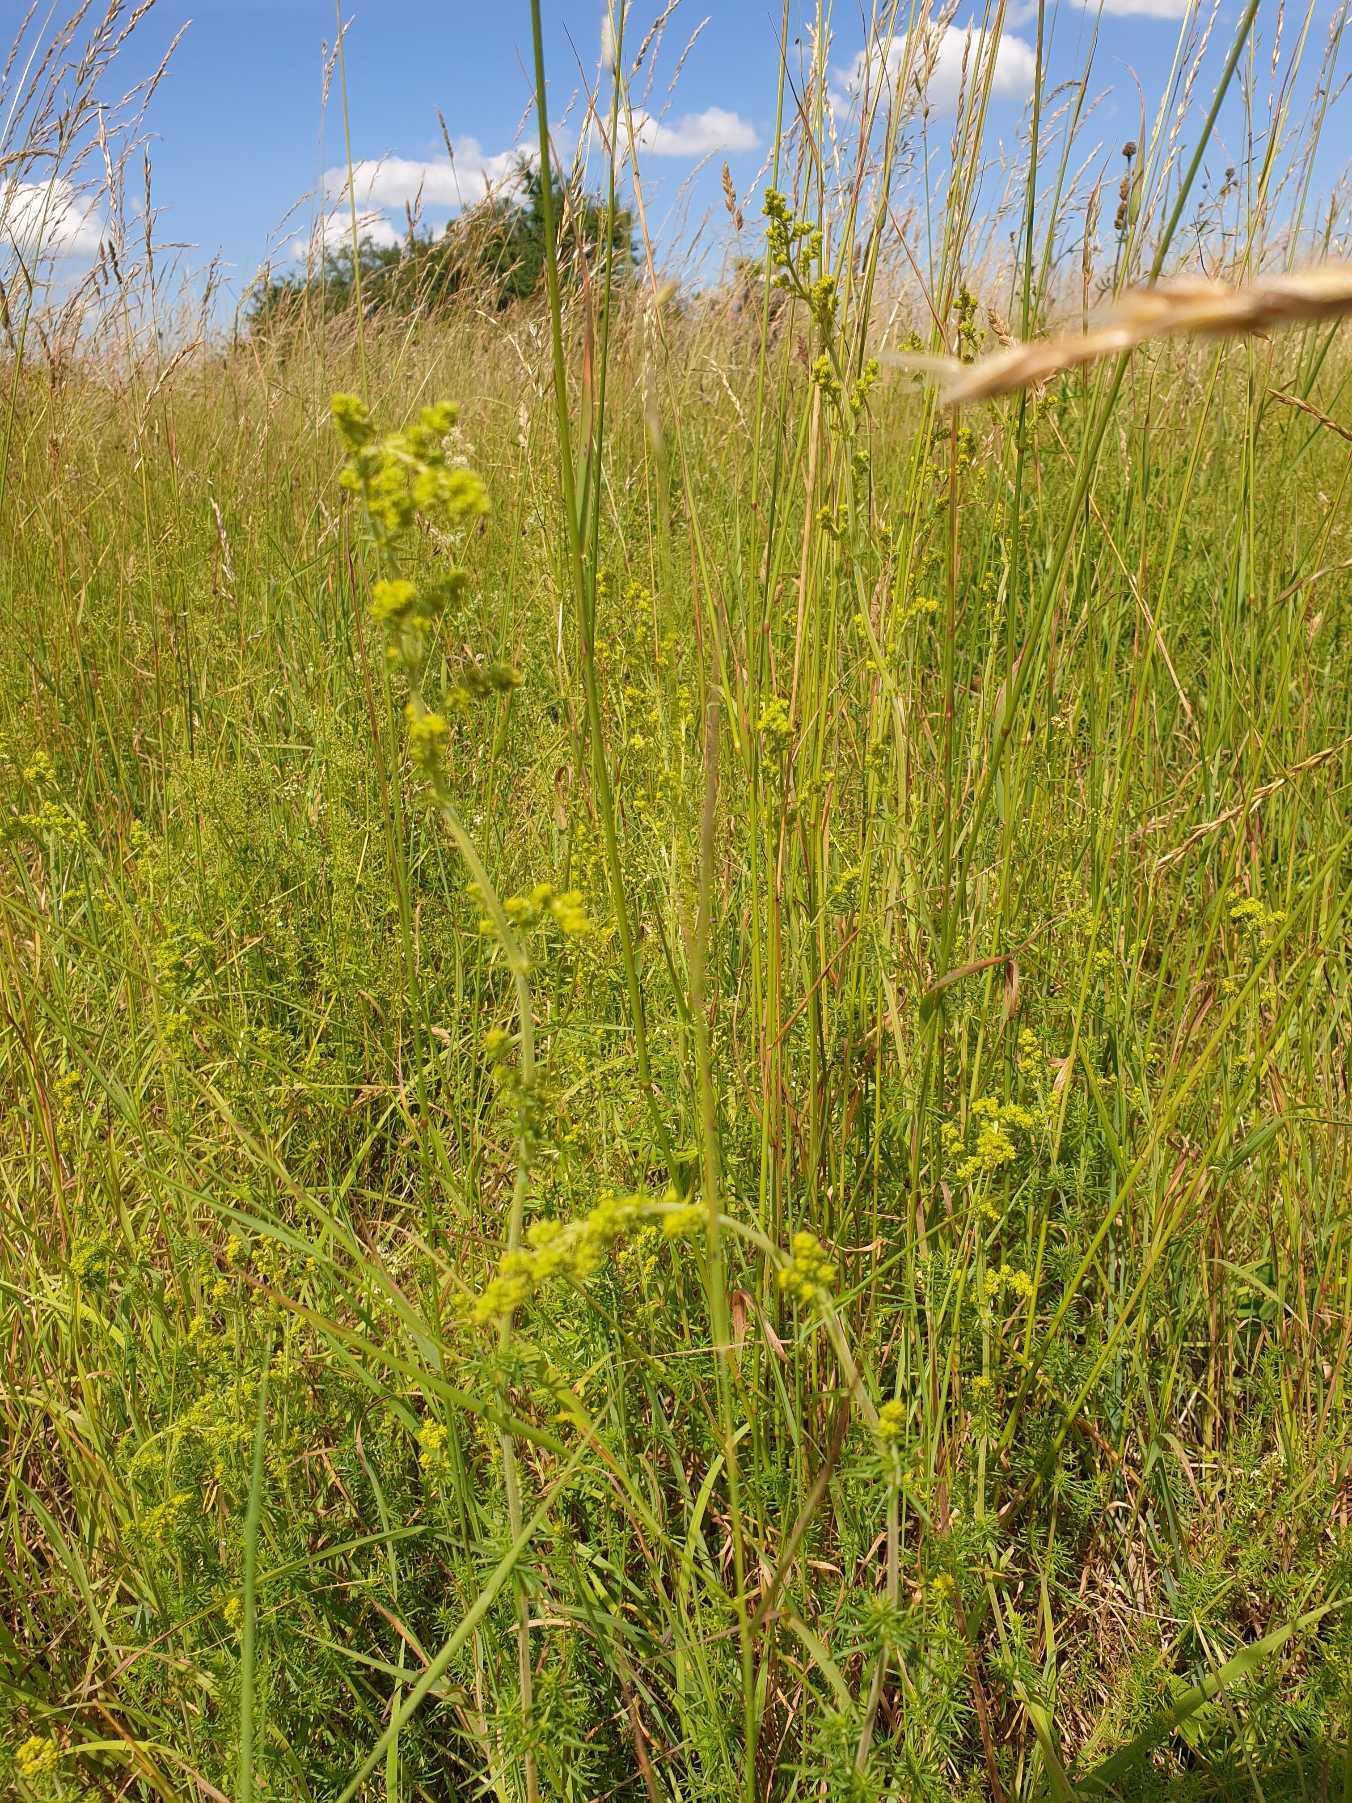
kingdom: Plantae
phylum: Tracheophyta
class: Magnoliopsida
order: Gentianales
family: Rubiaceae
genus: Galium
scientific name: Galium verum
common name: Gul snerre
